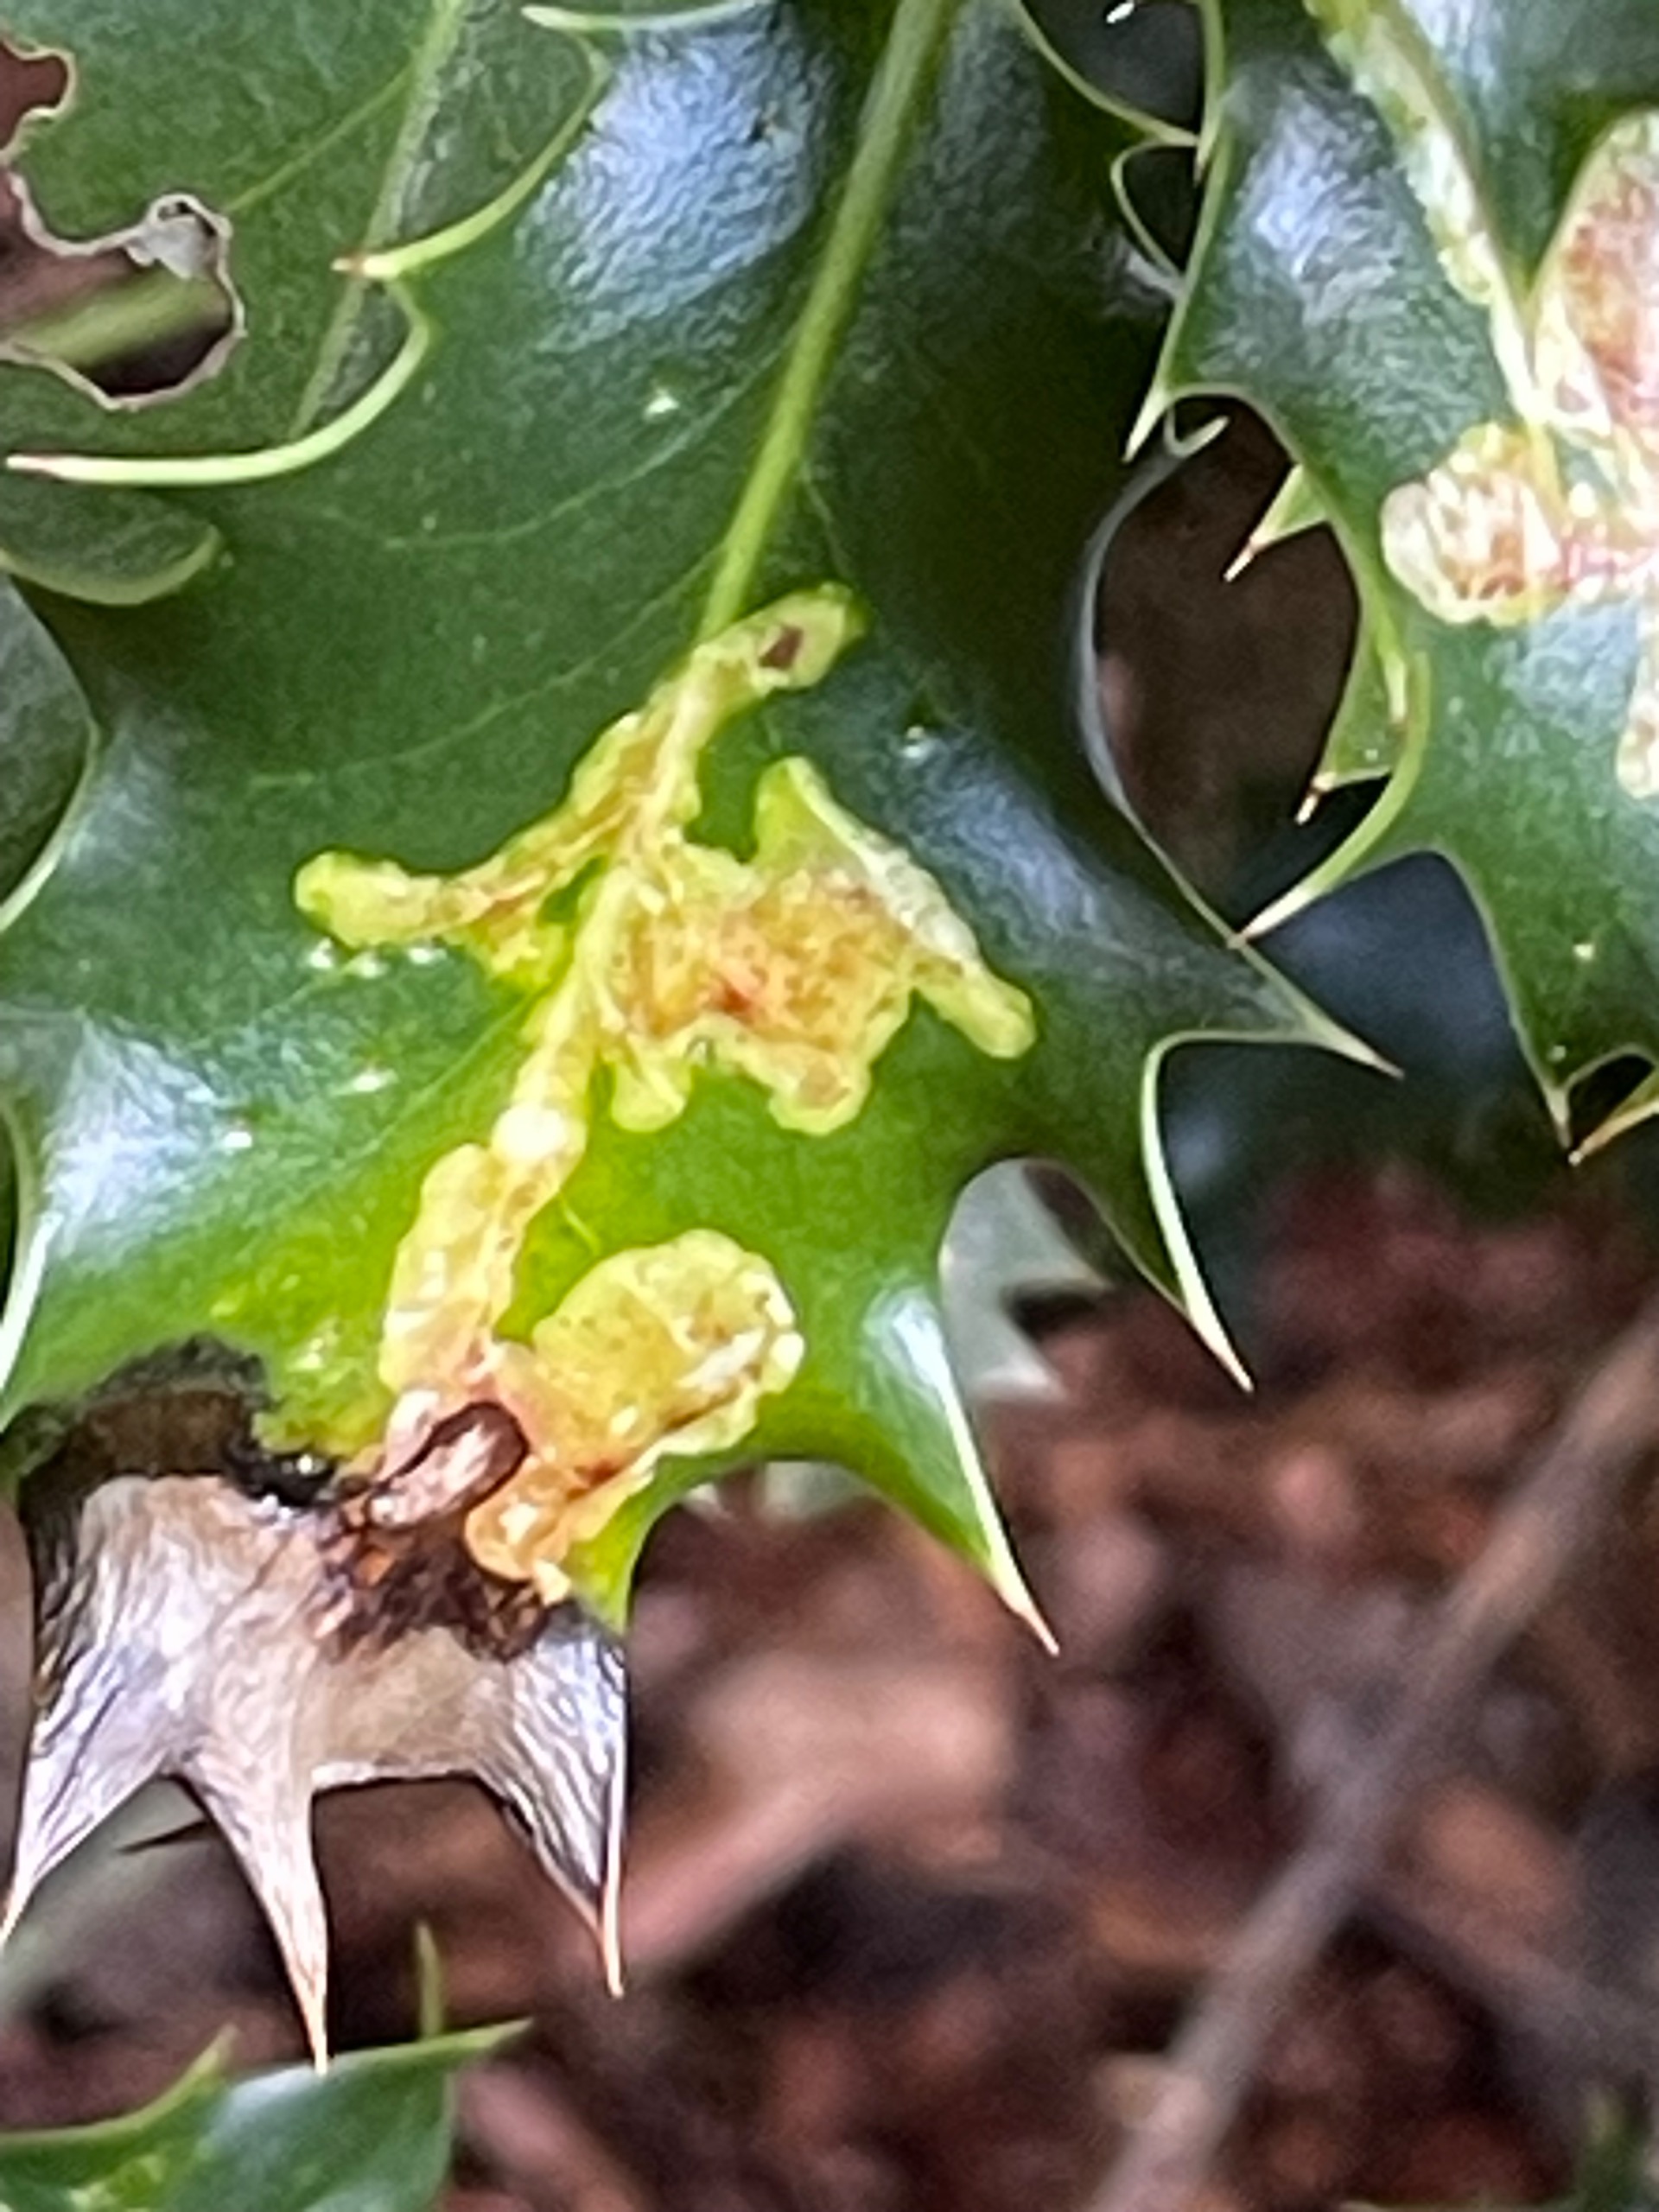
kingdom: Animalia
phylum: Arthropoda
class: Insecta
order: Diptera
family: Agromyzidae
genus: Phytomyza
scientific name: Phytomyza ilicis
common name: Kristtornminérflue
